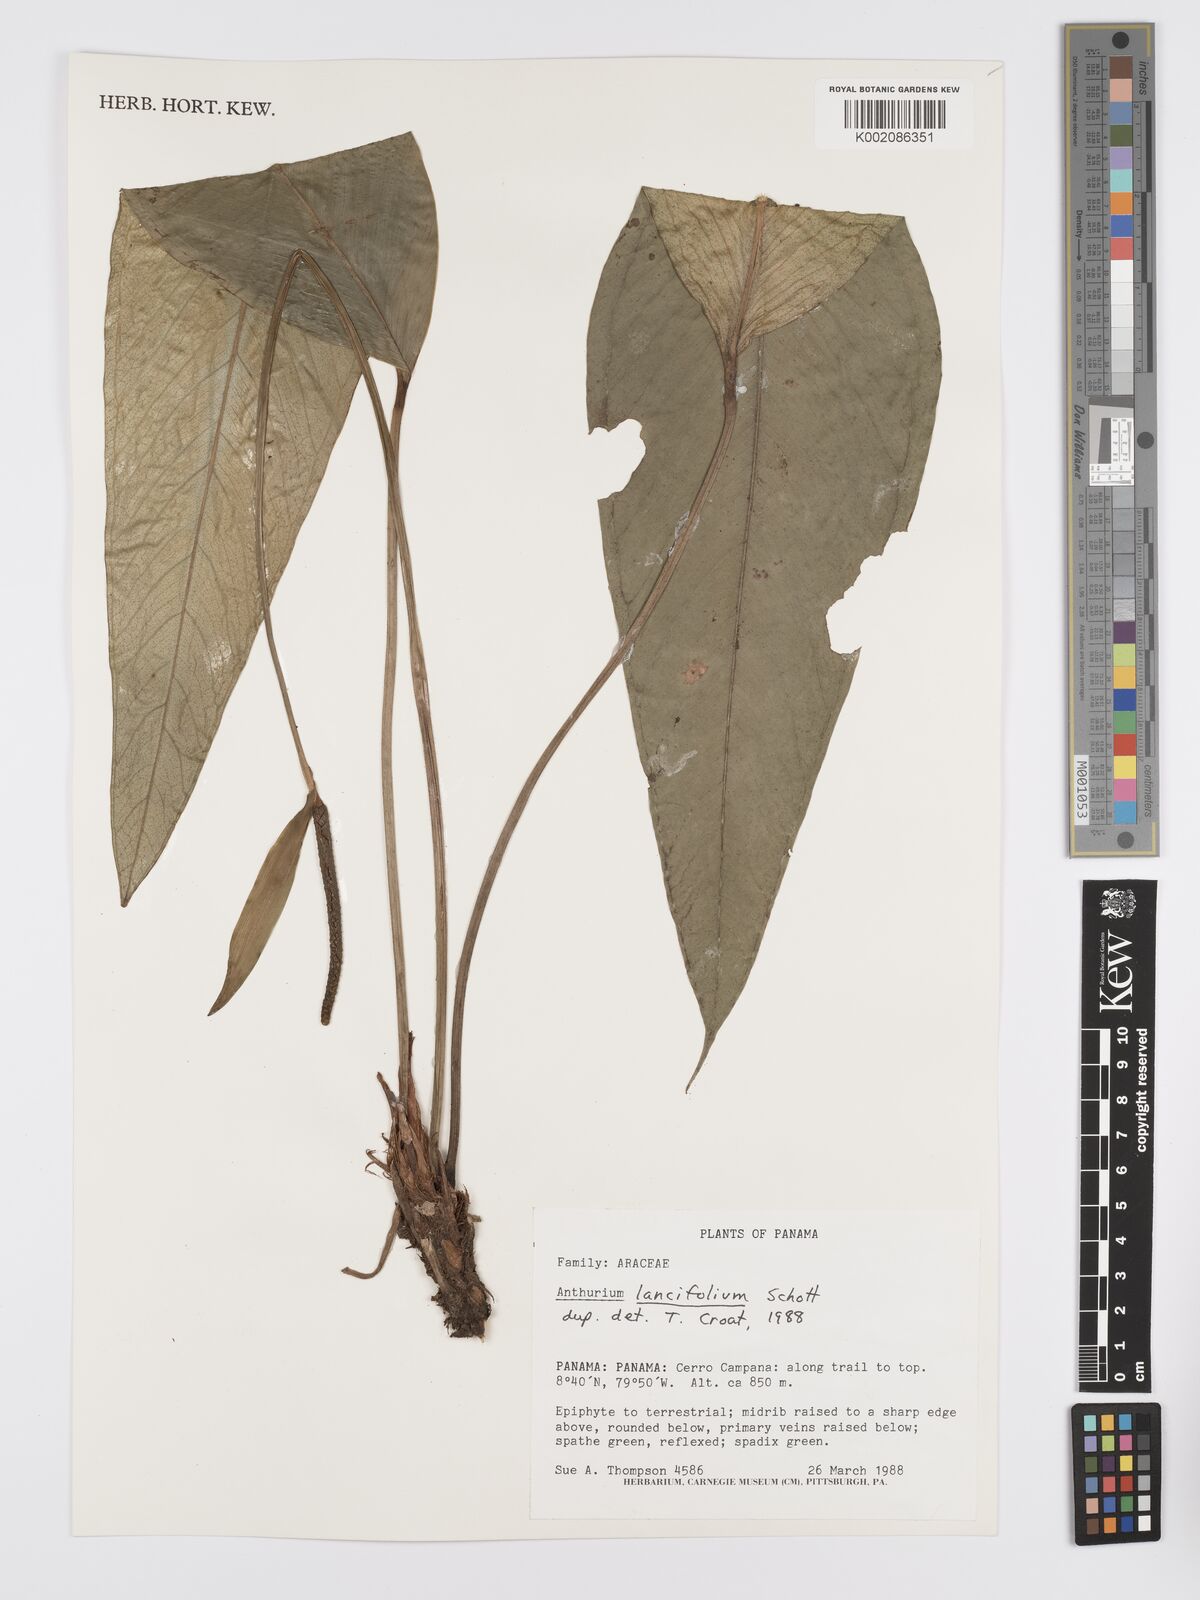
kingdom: Plantae
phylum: Tracheophyta
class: Liliopsida
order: Alismatales
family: Araceae
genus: Anthurium
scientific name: Anthurium lancifolium
